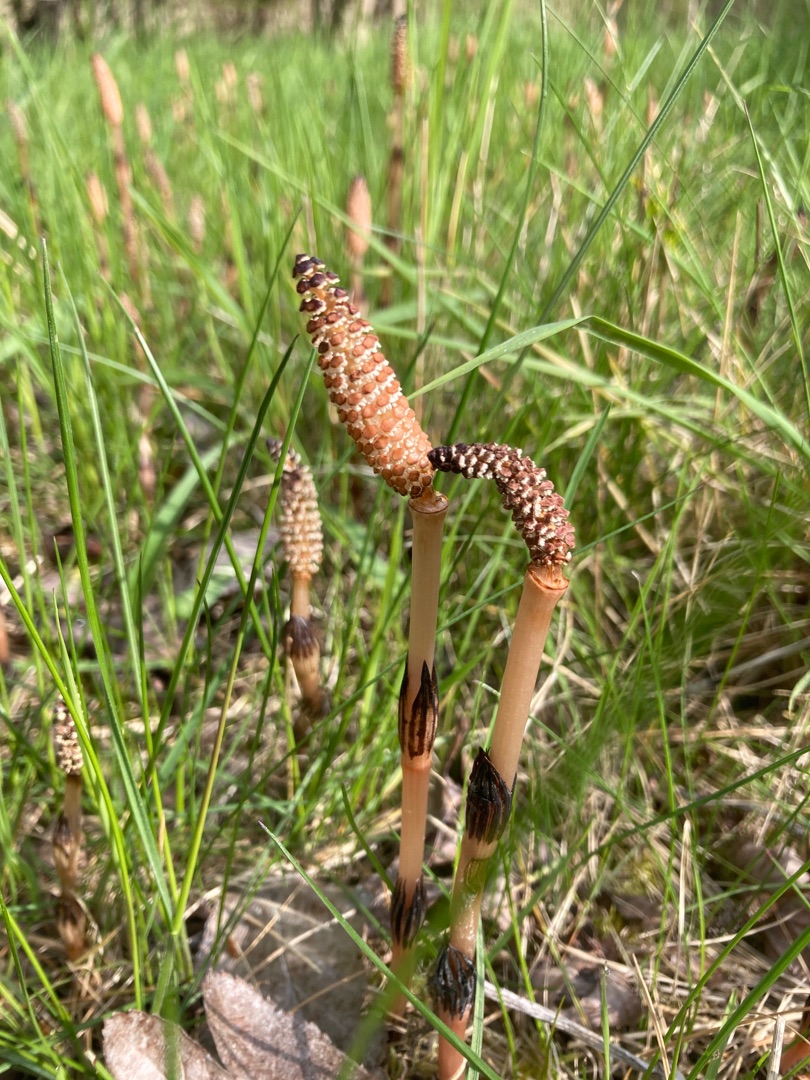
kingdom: Plantae
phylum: Tracheophyta
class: Polypodiopsida
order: Equisetales
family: Equisetaceae
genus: Equisetum
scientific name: Equisetum arvense
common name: Ager-padderok
